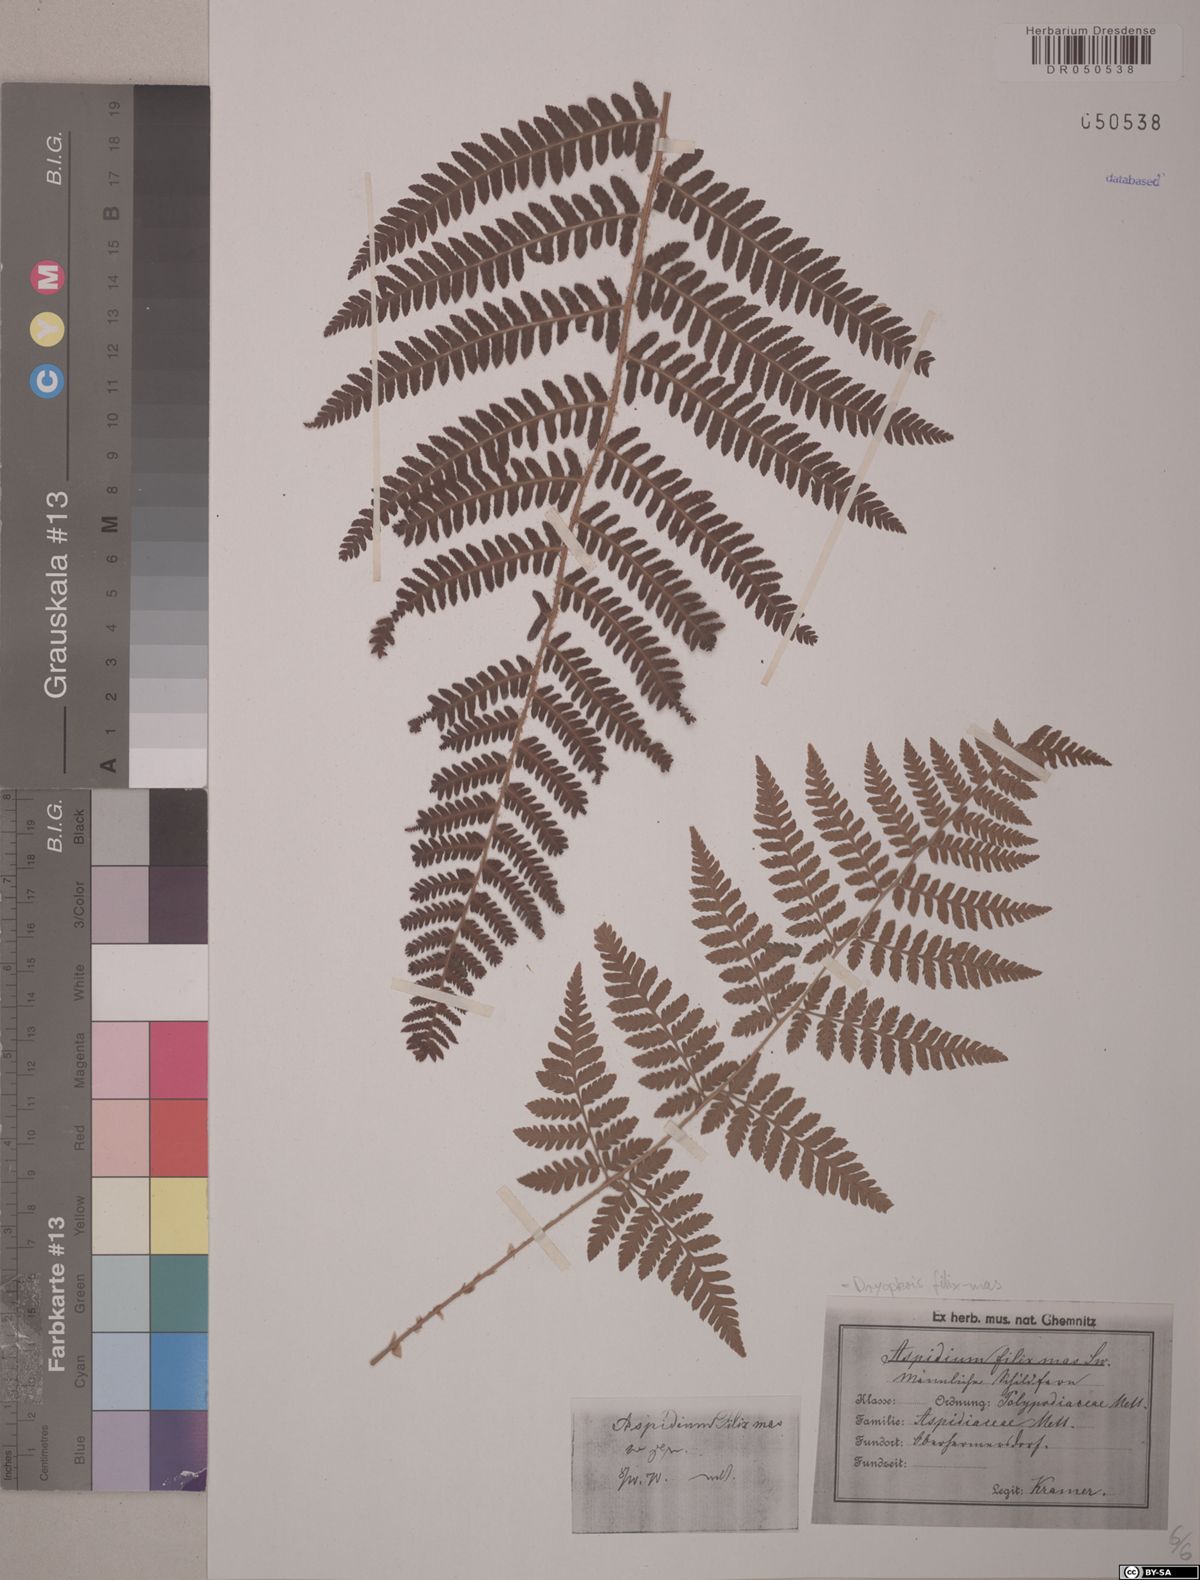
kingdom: Plantae
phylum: Tracheophyta
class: Polypodiopsida
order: Polypodiales
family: Dryopteridaceae
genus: Dryopteris
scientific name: Dryopteris filix-mas
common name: Male fern
